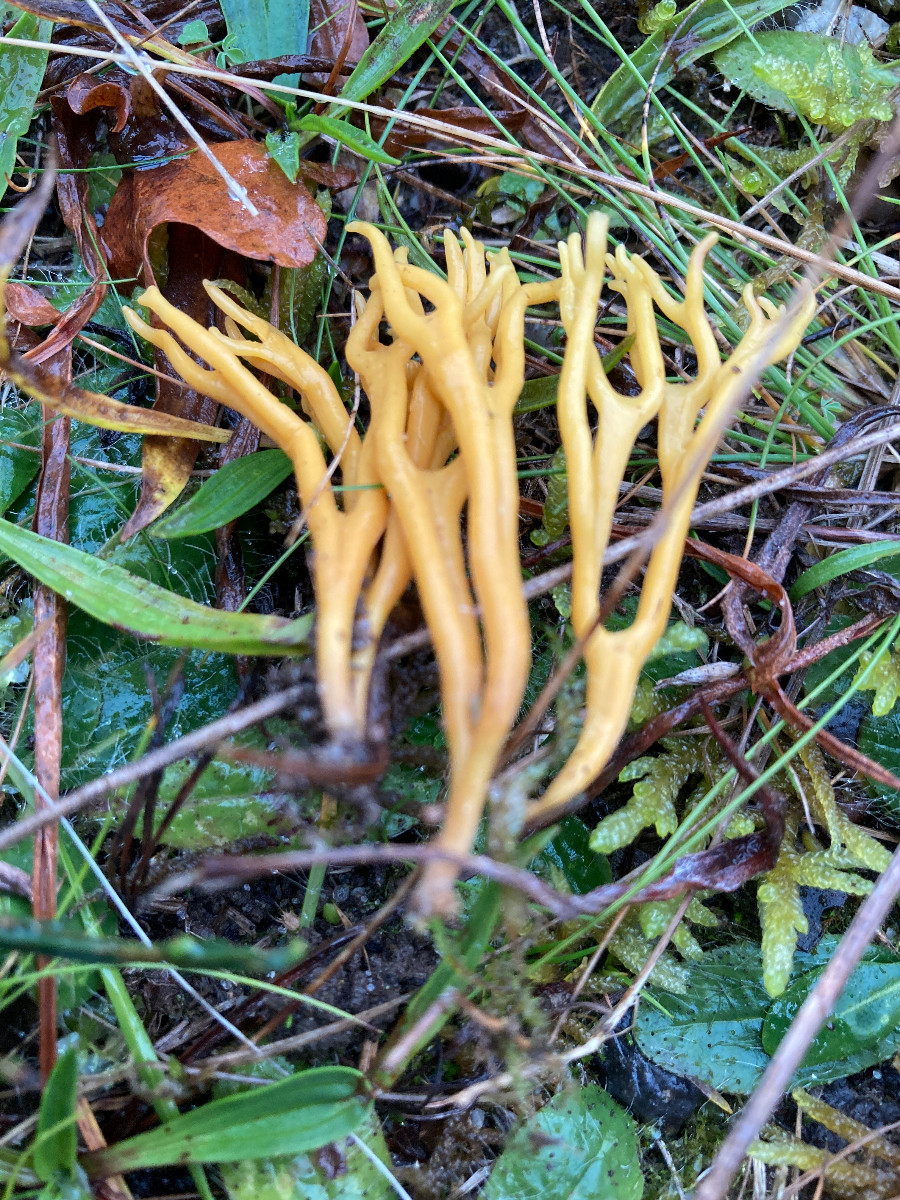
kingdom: Fungi
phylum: Basidiomycota
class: Agaricomycetes
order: Agaricales
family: Clavariaceae
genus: Clavulinopsis
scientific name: Clavulinopsis corniculata
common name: eng-køllesvamp
